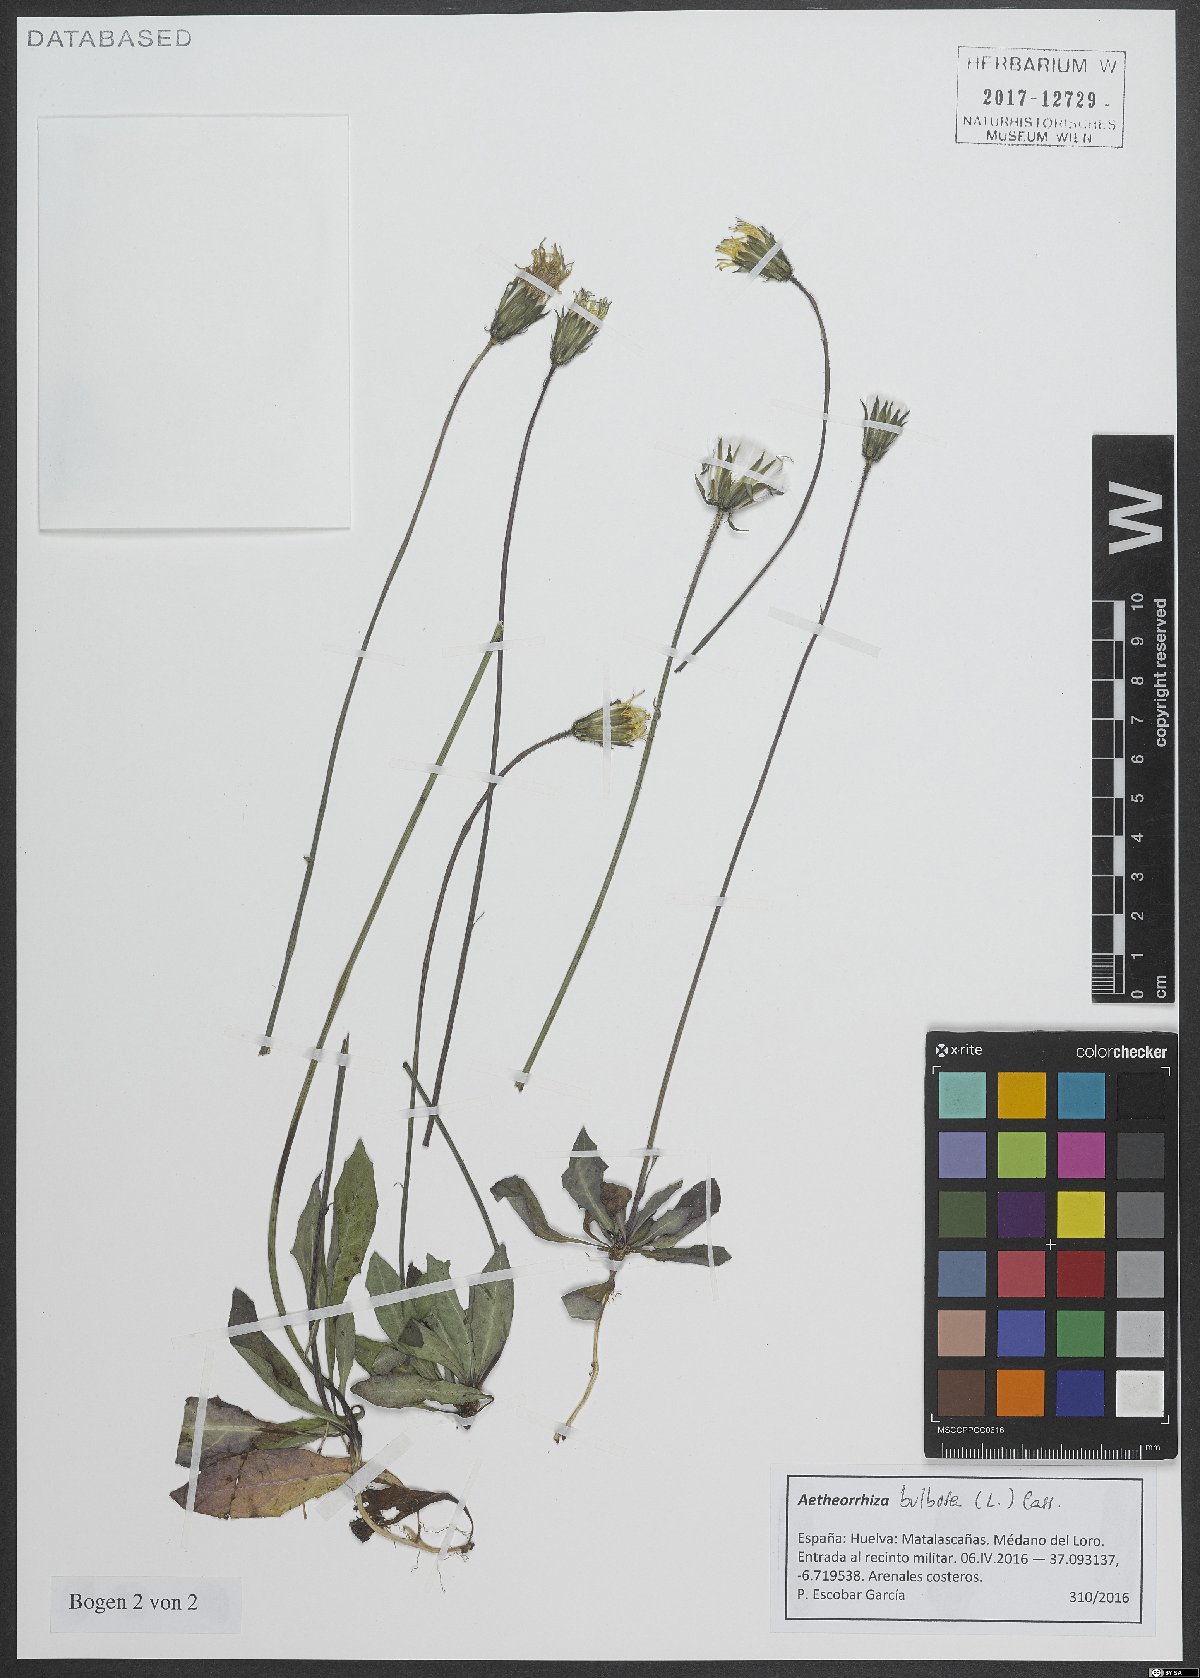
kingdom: Plantae
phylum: Tracheophyta
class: Magnoliopsida
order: Asterales
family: Asteraceae
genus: Aetheorhiza
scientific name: Aetheorhiza bulbosa
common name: Tuberous hawk's-beard
